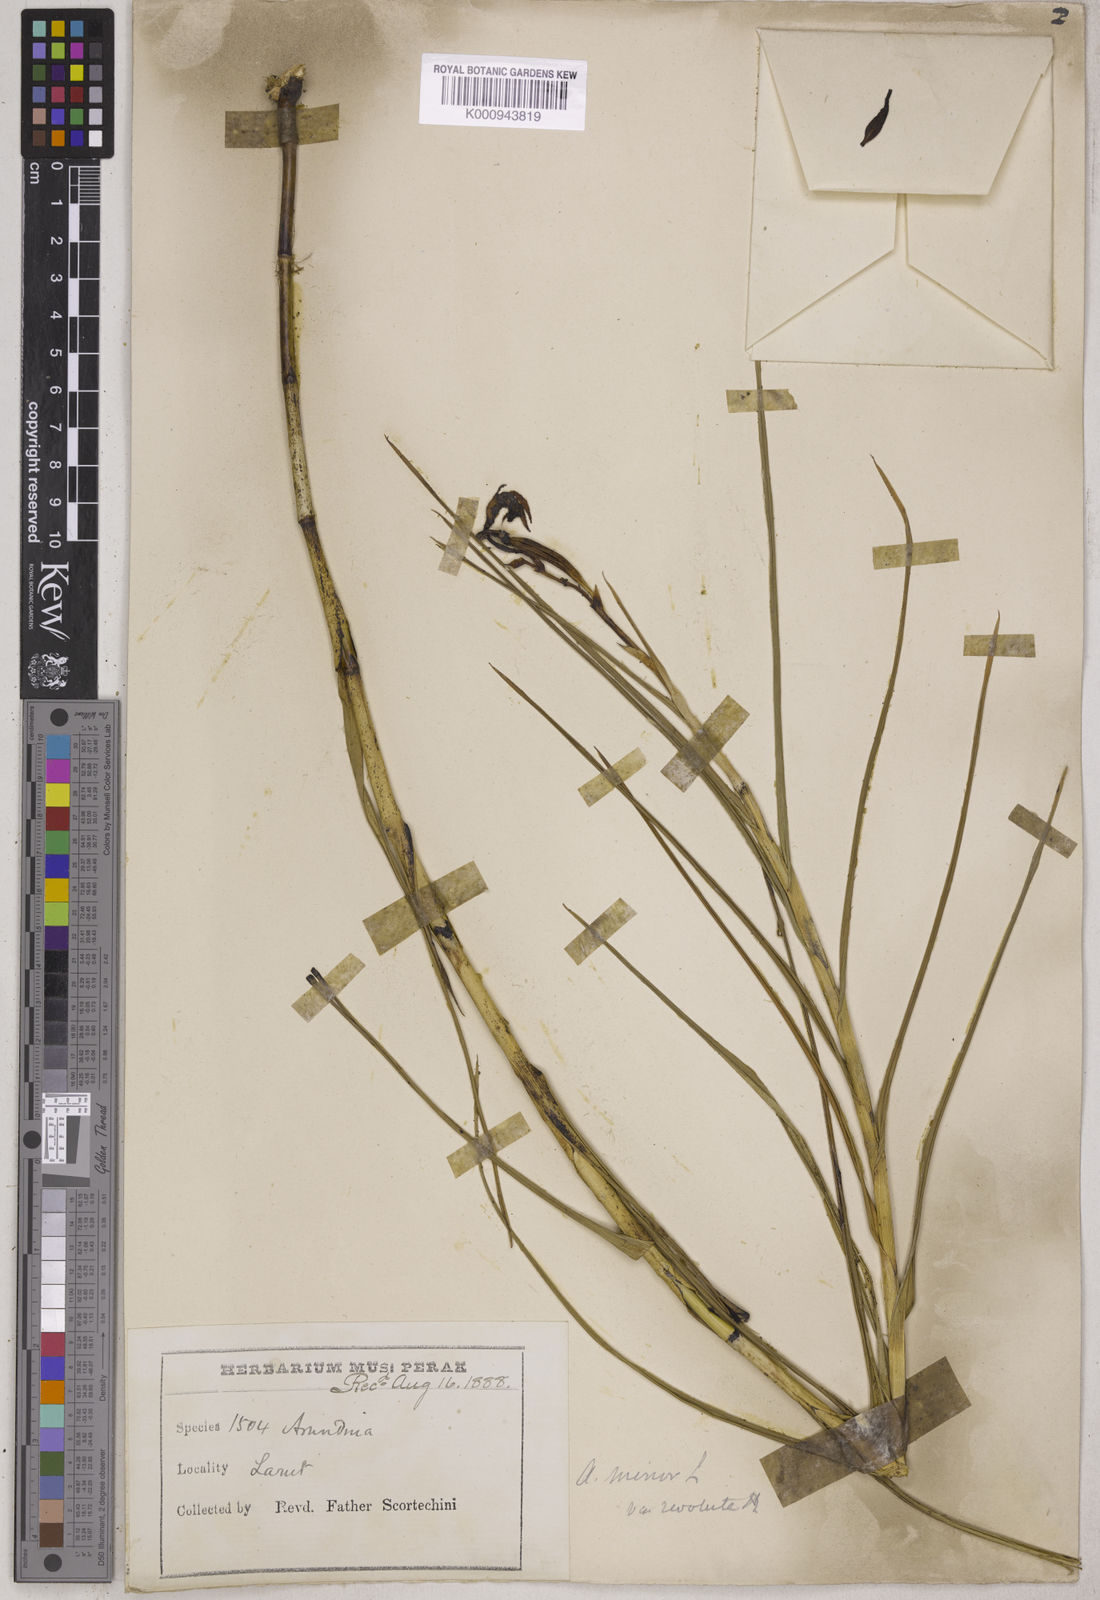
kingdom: Plantae
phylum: Tracheophyta
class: Liliopsida
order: Asparagales
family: Orchidaceae
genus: Arundina
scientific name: Arundina graminifolia
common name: Bamboo orchid
